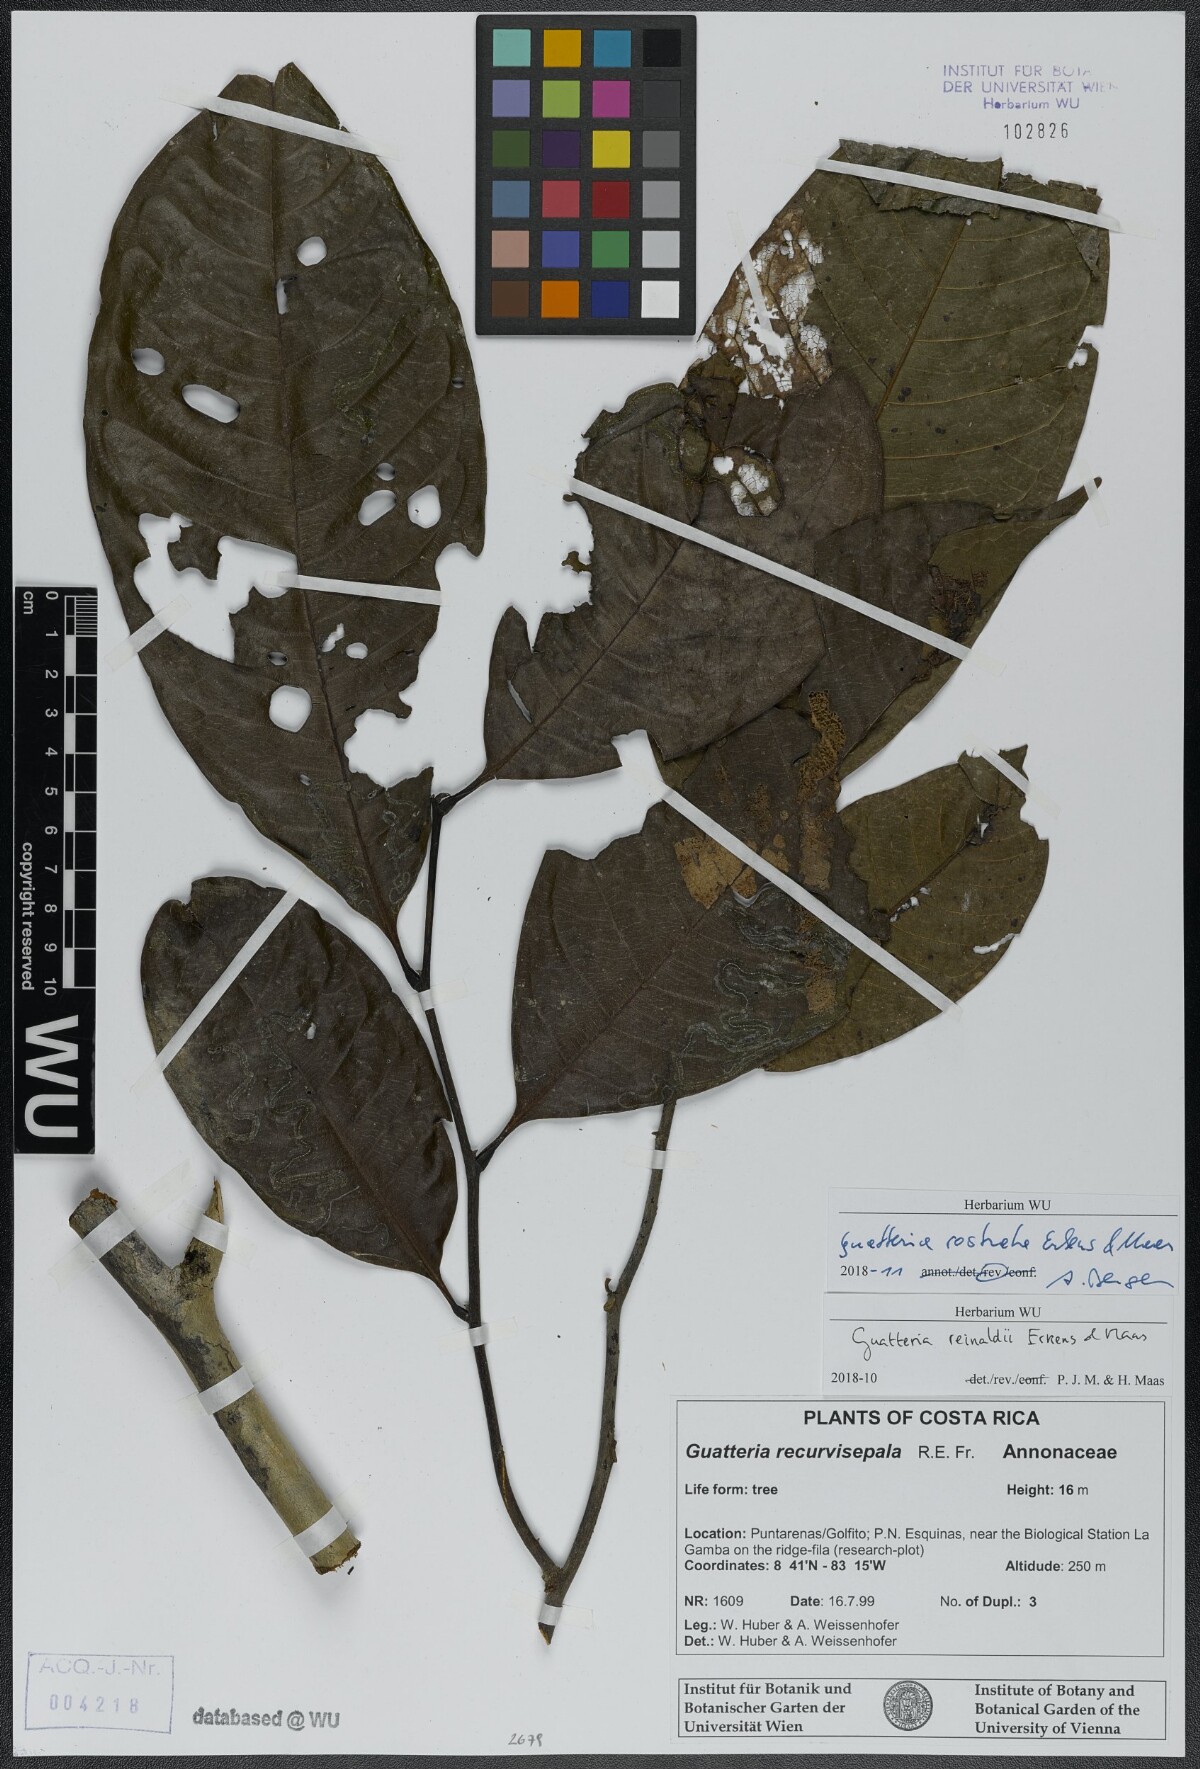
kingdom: Plantae
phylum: Tracheophyta
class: Magnoliopsida
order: Magnoliales
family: Annonaceae
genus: Guatteria
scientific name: Guatteria reinaldii
